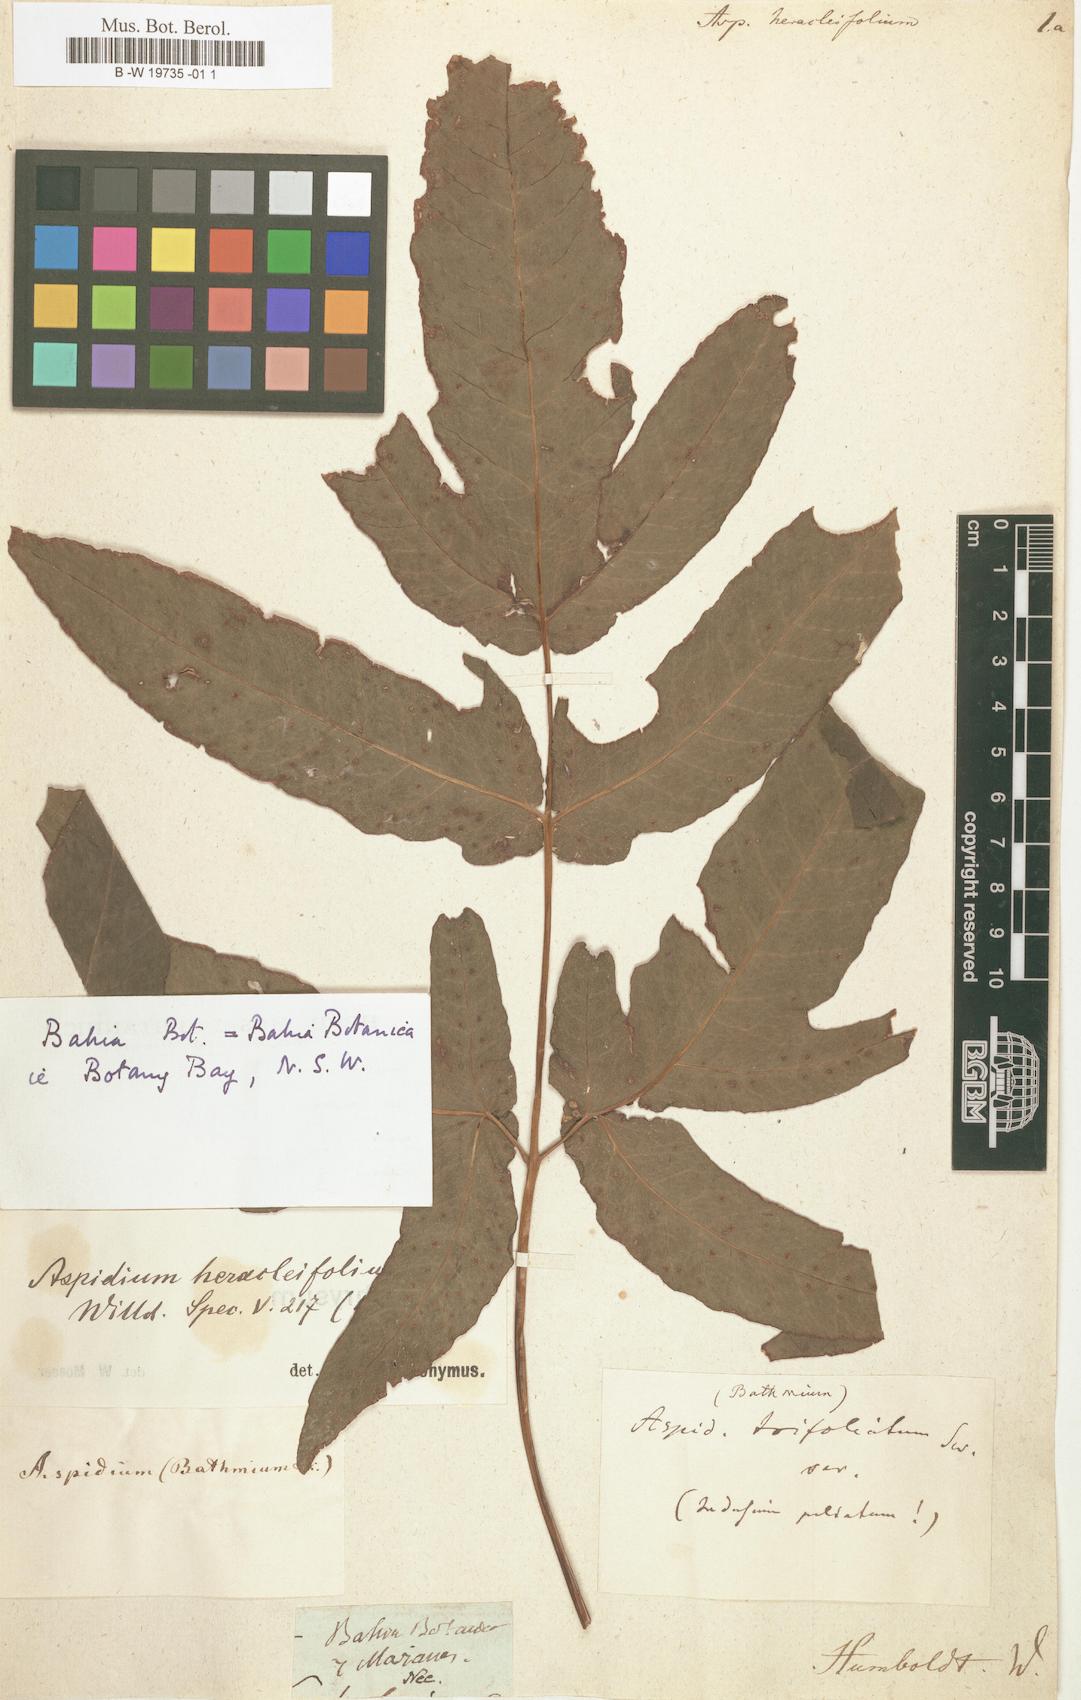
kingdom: Plantae
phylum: Tracheophyta
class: Polypodiopsida
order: Polypodiales
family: Tectariaceae
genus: Tectaria
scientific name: Tectaria
